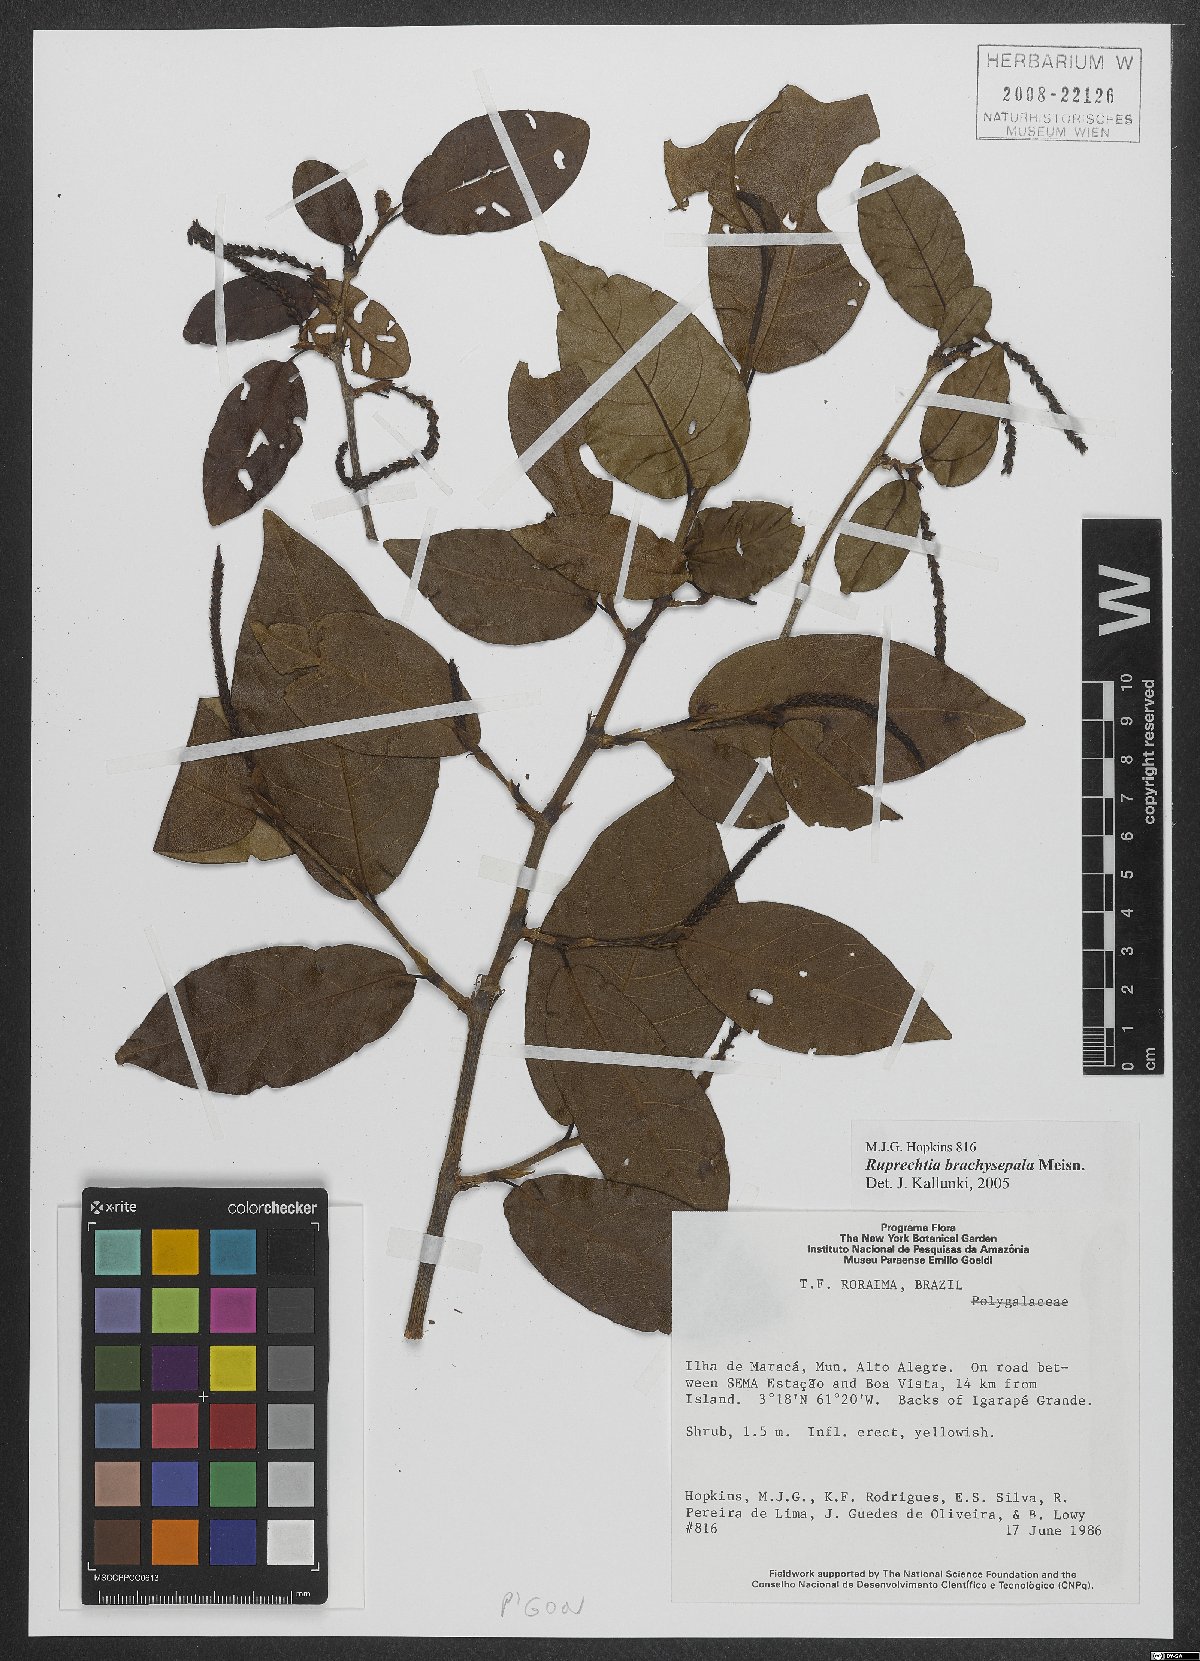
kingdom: Plantae
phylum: Tracheophyta
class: Magnoliopsida
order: Caryophyllales
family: Polygonaceae
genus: Ruprechtia
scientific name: Ruprechtia brachysepala
